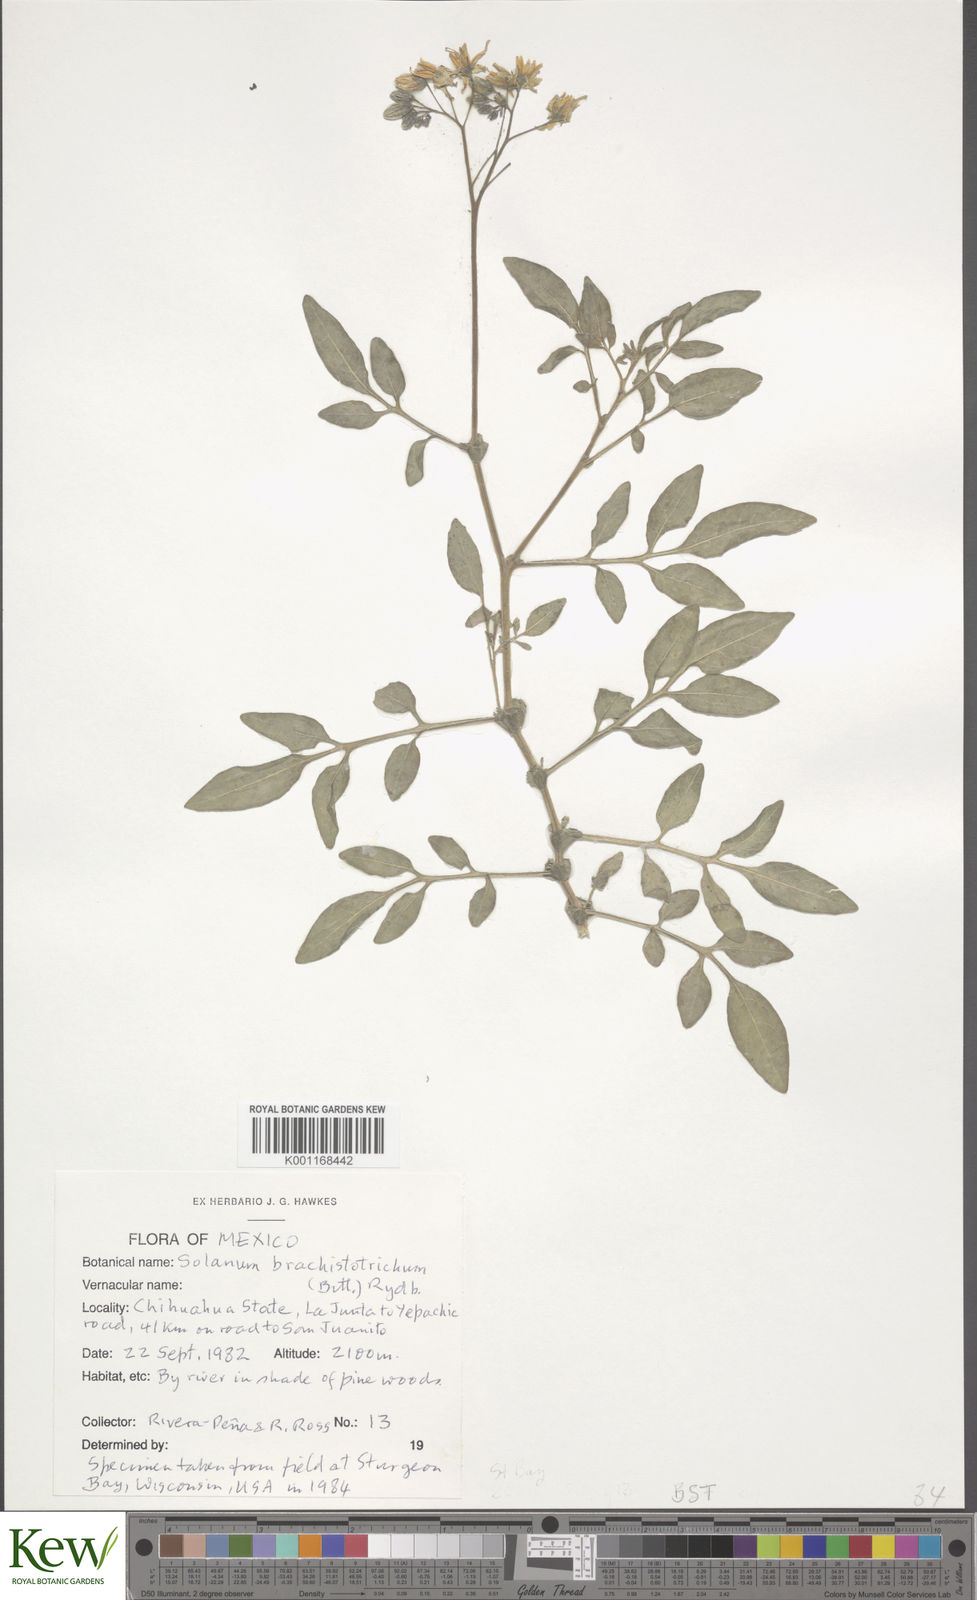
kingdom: Plantae
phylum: Tracheophyta
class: Magnoliopsida
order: Solanales
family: Solanaceae
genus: Solanum
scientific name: Solanum
